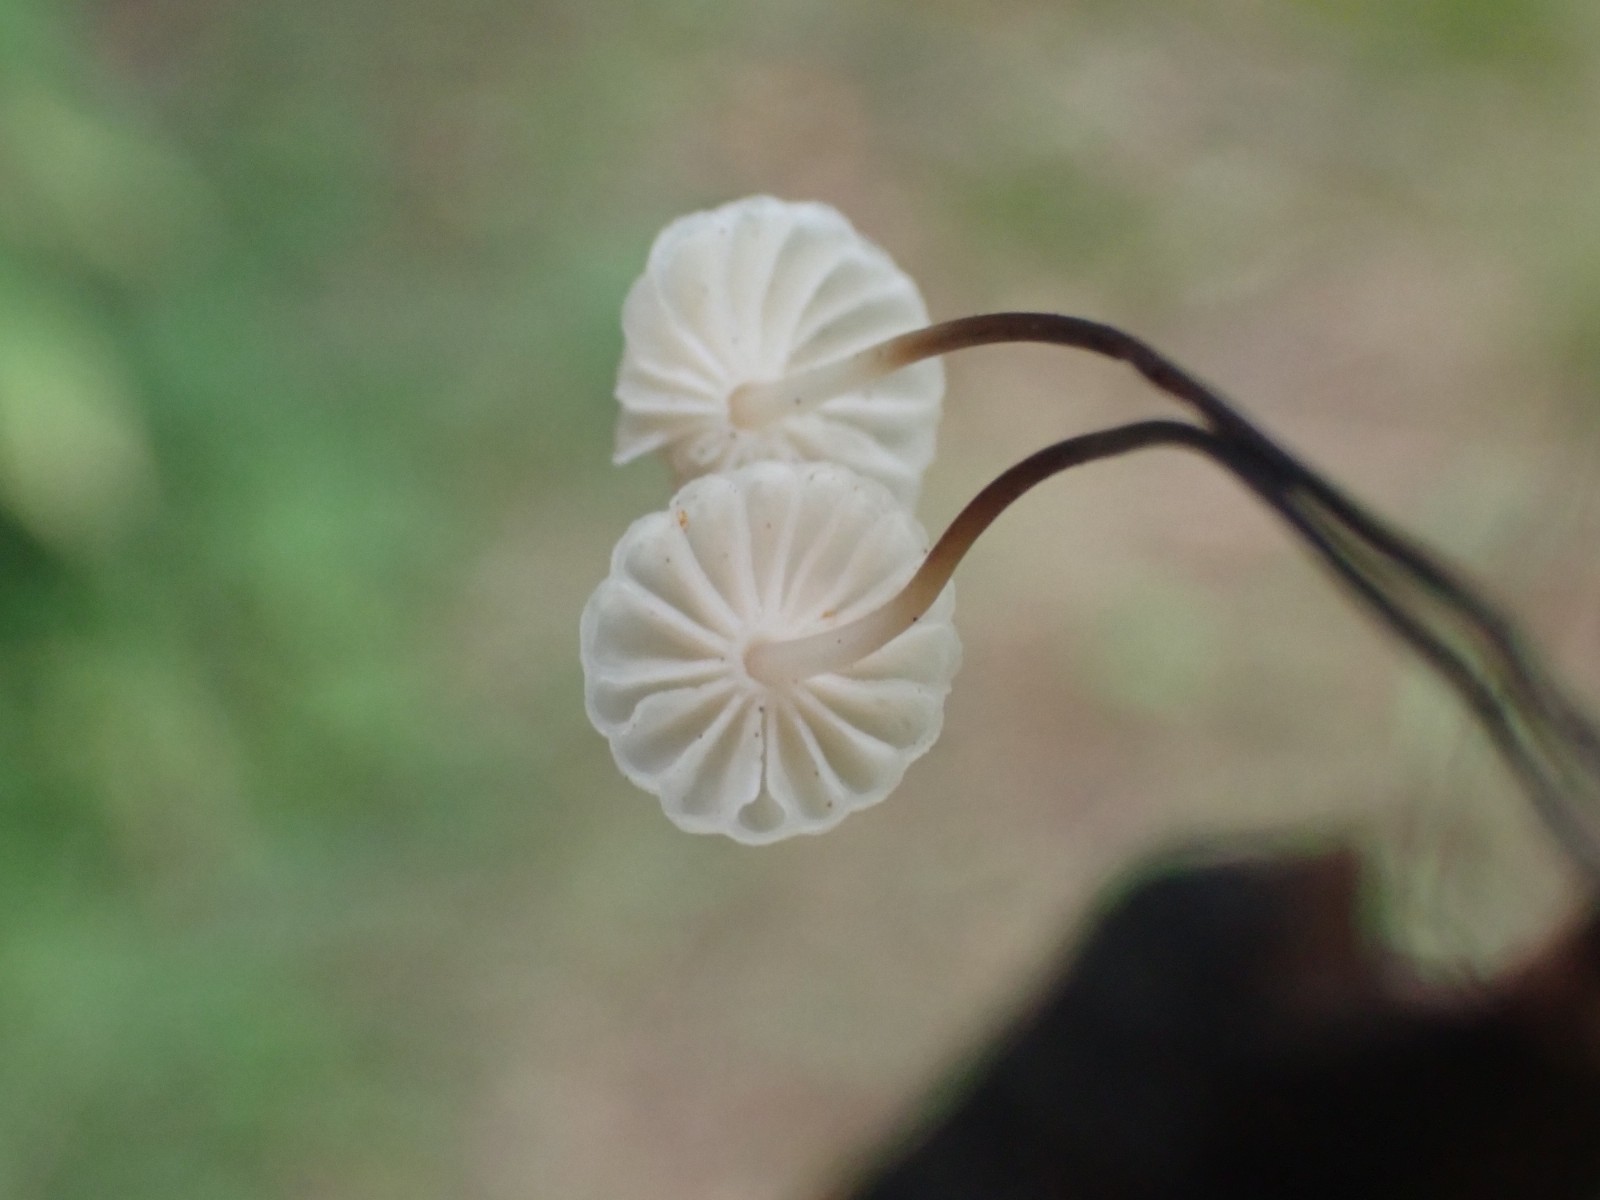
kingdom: Fungi
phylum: Basidiomycota
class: Agaricomycetes
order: Agaricales
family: Marasmiaceae
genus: Marasmius
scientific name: Marasmius rotula
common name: hjul-bruskhat
